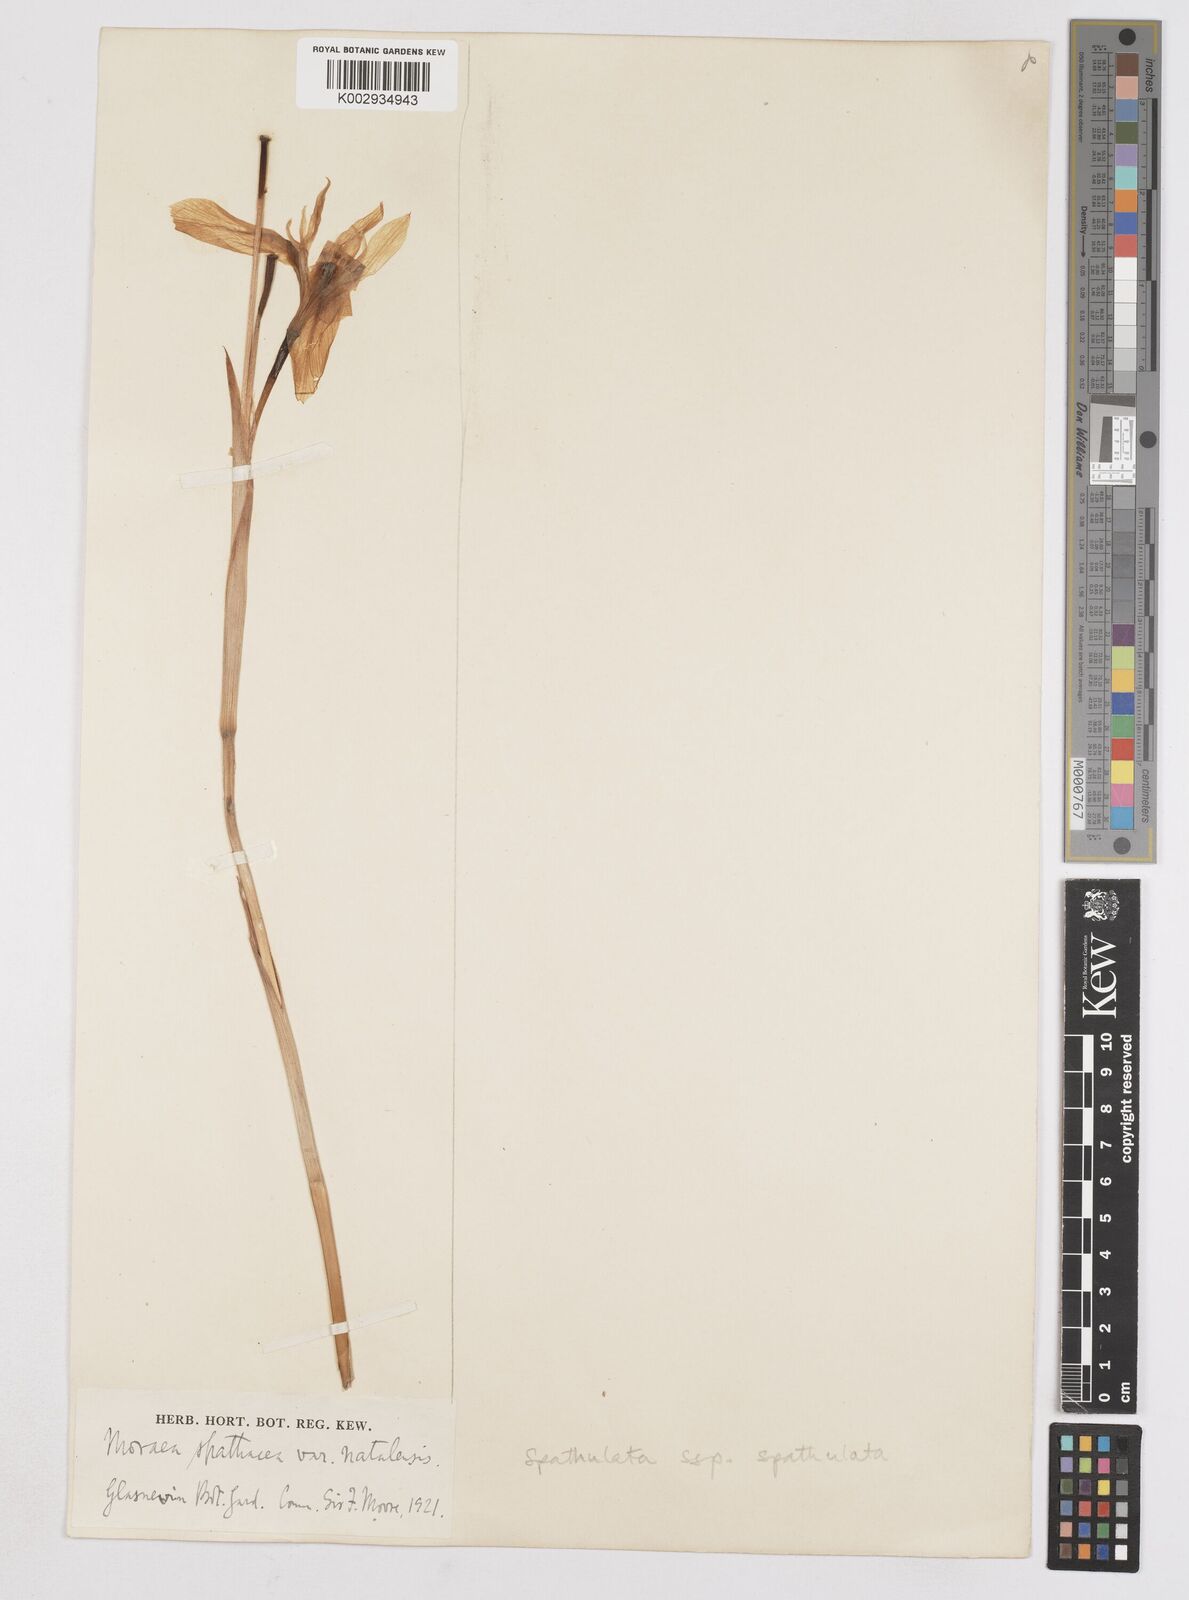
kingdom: Plantae
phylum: Tracheophyta
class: Liliopsida
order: Asparagales
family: Iridaceae
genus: Moraea
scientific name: Moraea spathulata
